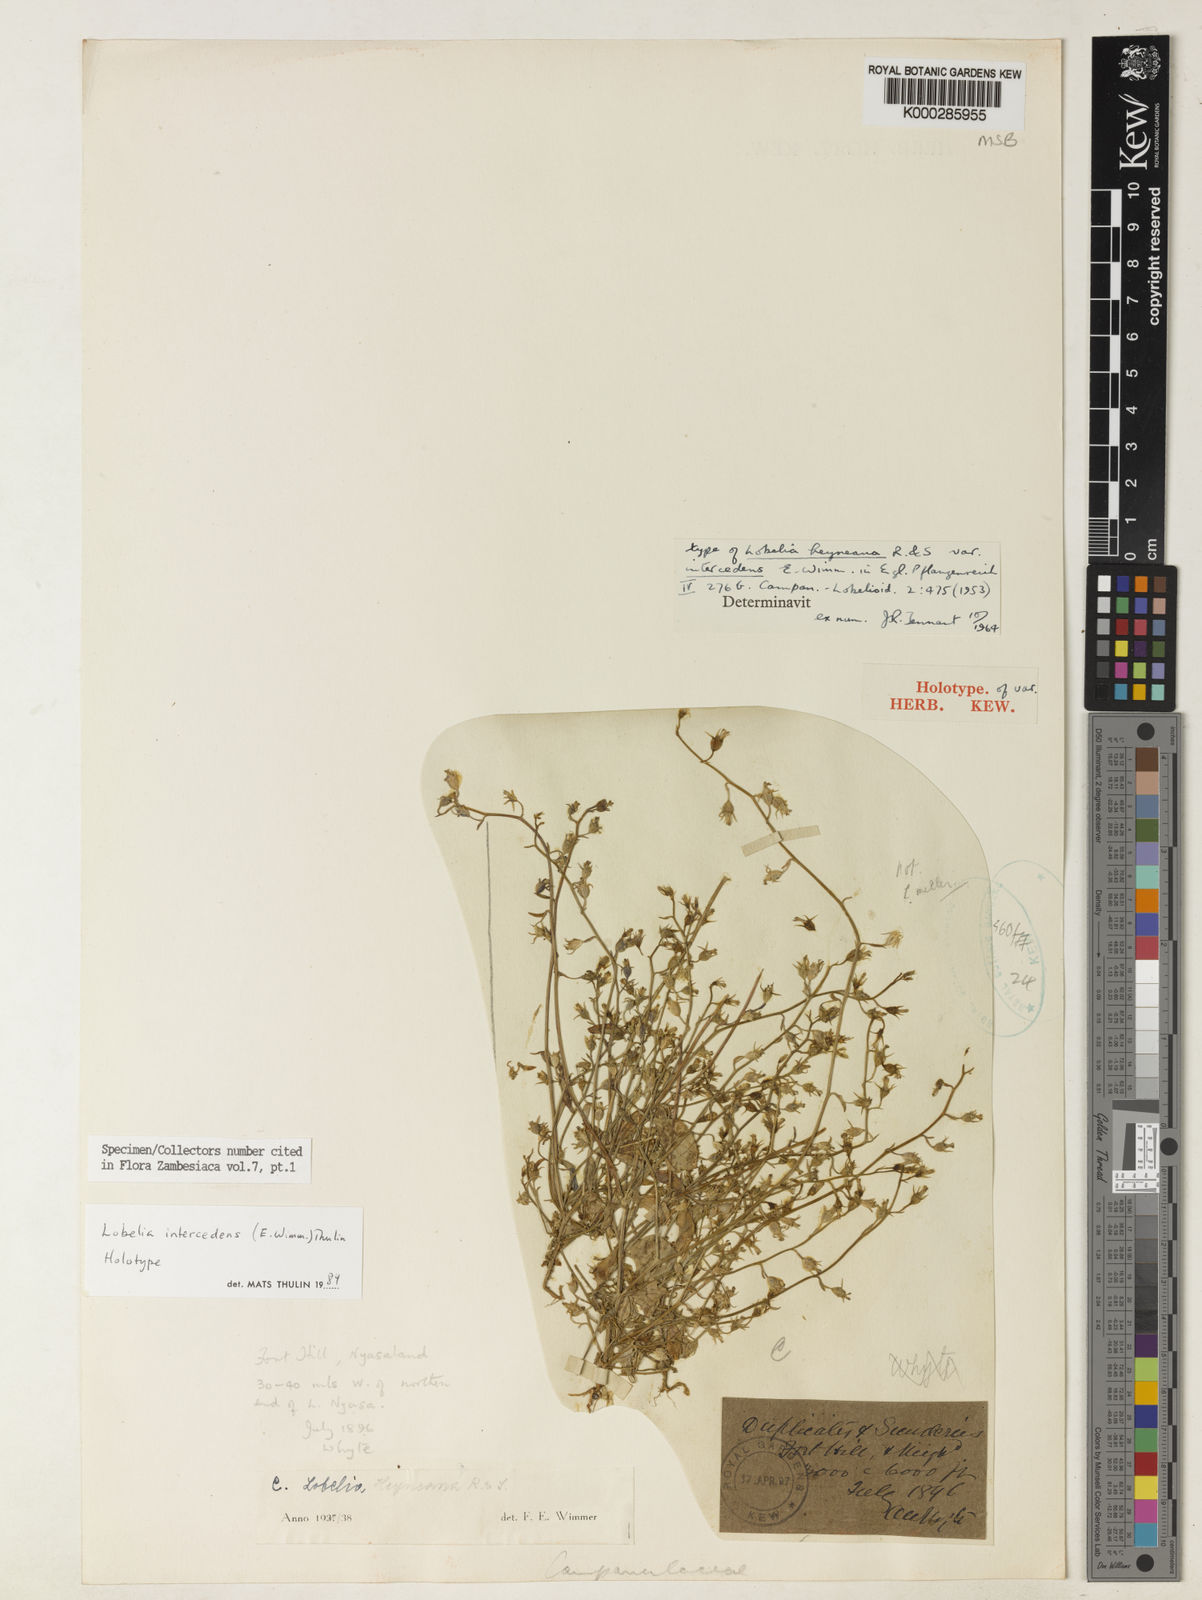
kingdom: Plantae
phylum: Tracheophyta
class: Magnoliopsida
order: Asterales
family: Campanulaceae
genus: Lobelia
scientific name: Lobelia intercedens
